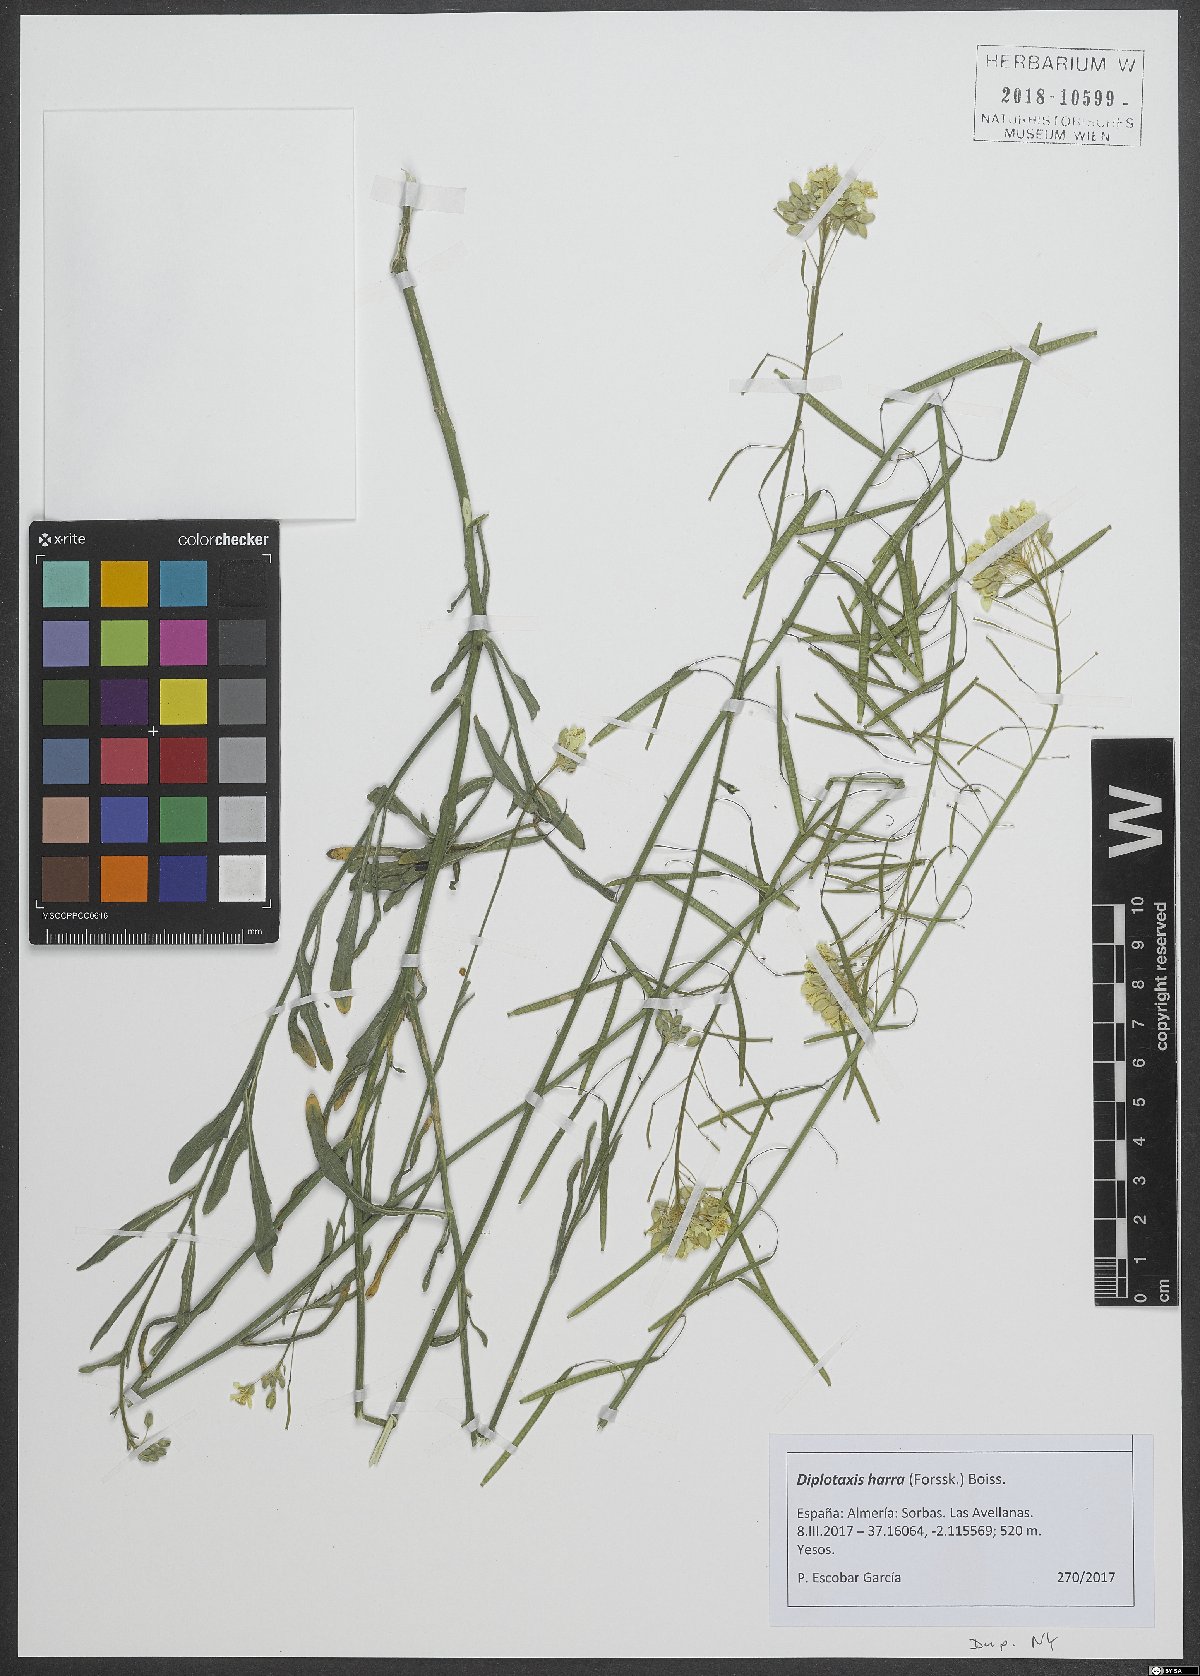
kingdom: Plantae
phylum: Tracheophyta
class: Magnoliopsida
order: Brassicales
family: Brassicaceae
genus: Diplotaxis
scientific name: Diplotaxis harra
